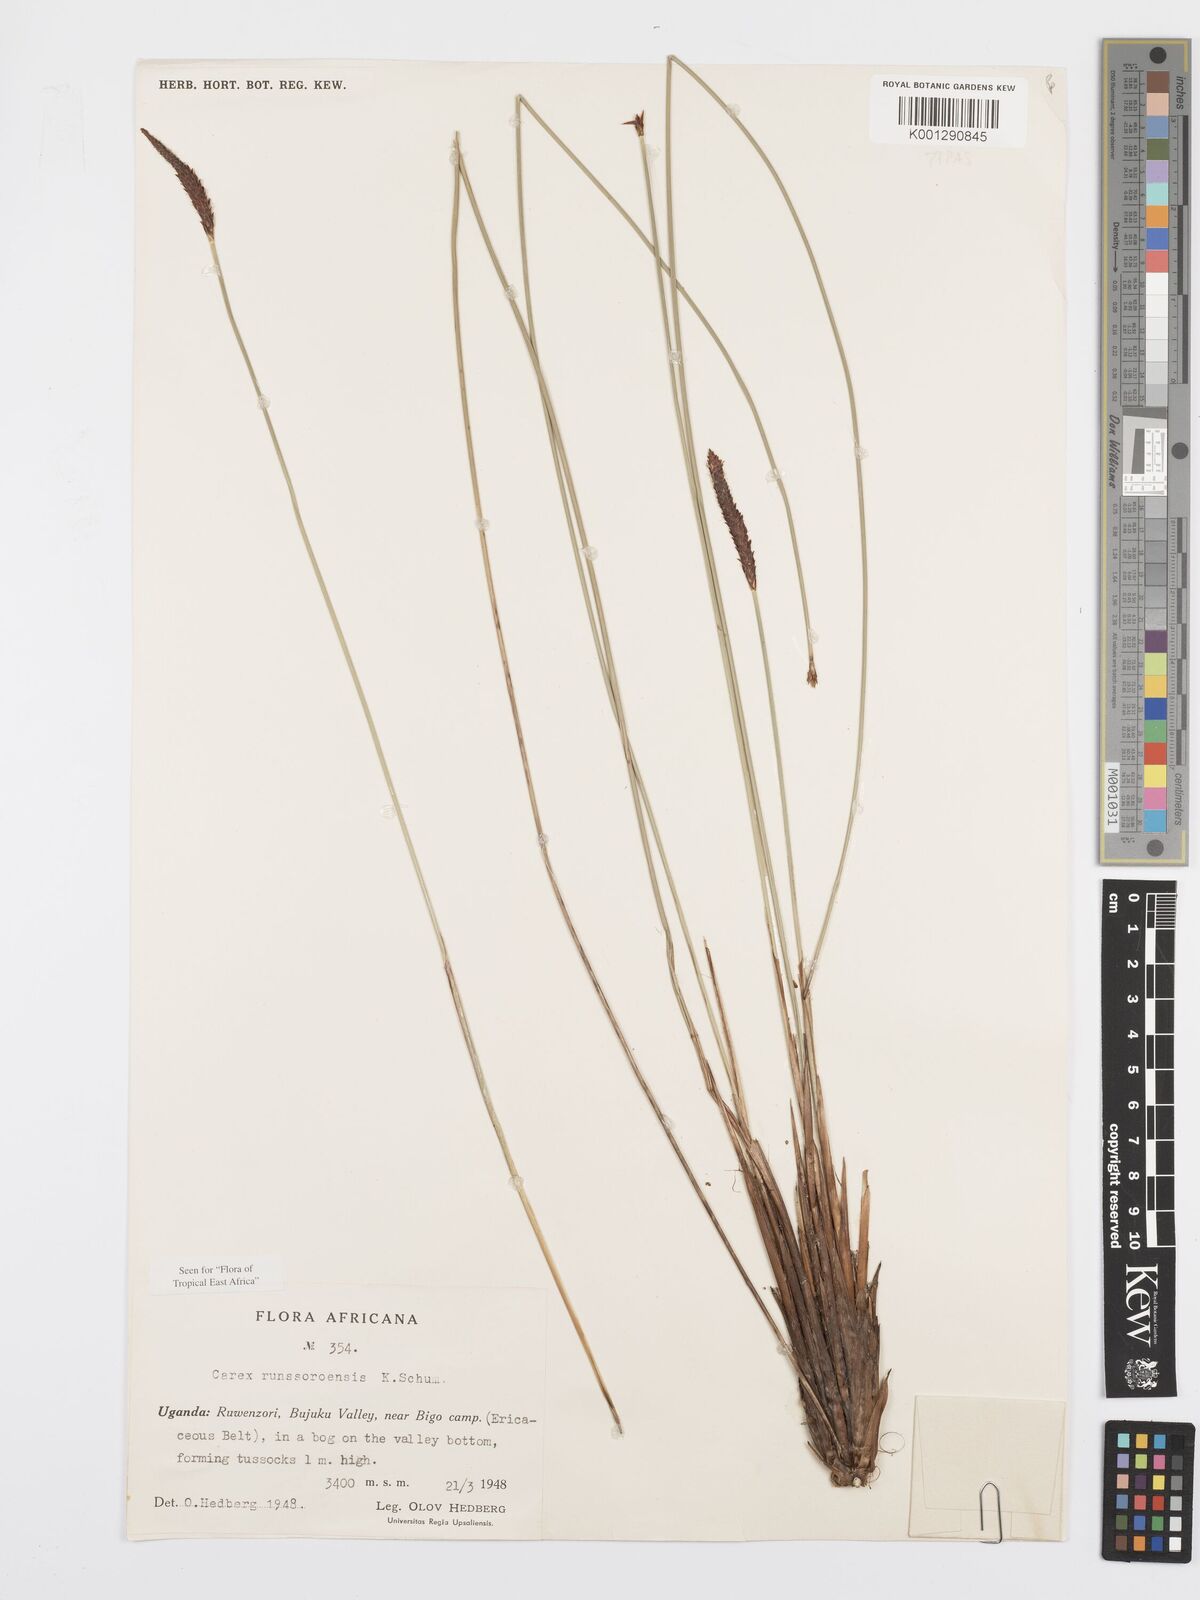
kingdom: Plantae
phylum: Tracheophyta
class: Liliopsida
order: Poales
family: Cyperaceae
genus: Carex
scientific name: Carex runssoroensis
